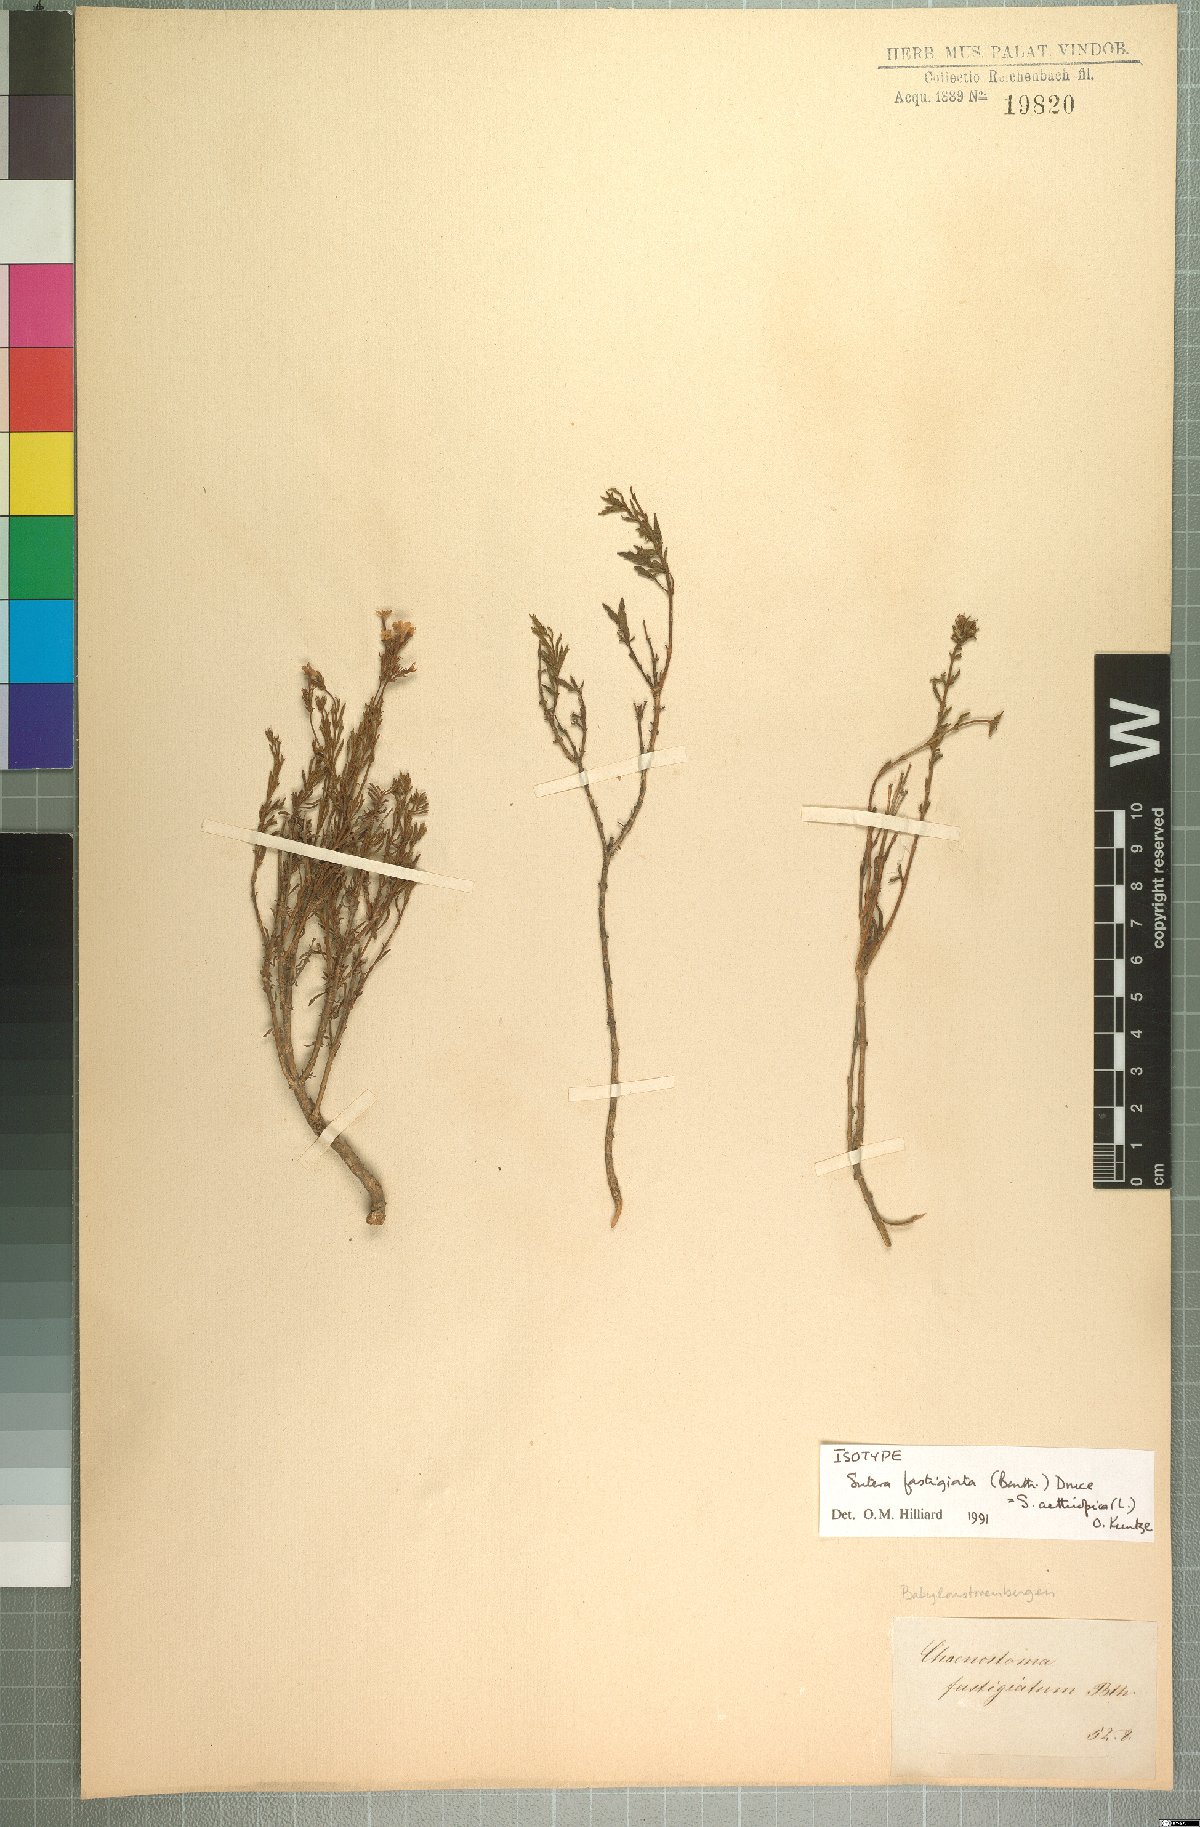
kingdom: Plantae
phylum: Tracheophyta
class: Magnoliopsida
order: Lamiales
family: Scrophulariaceae
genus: Chaenostoma
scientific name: Chaenostoma aethiopicum
